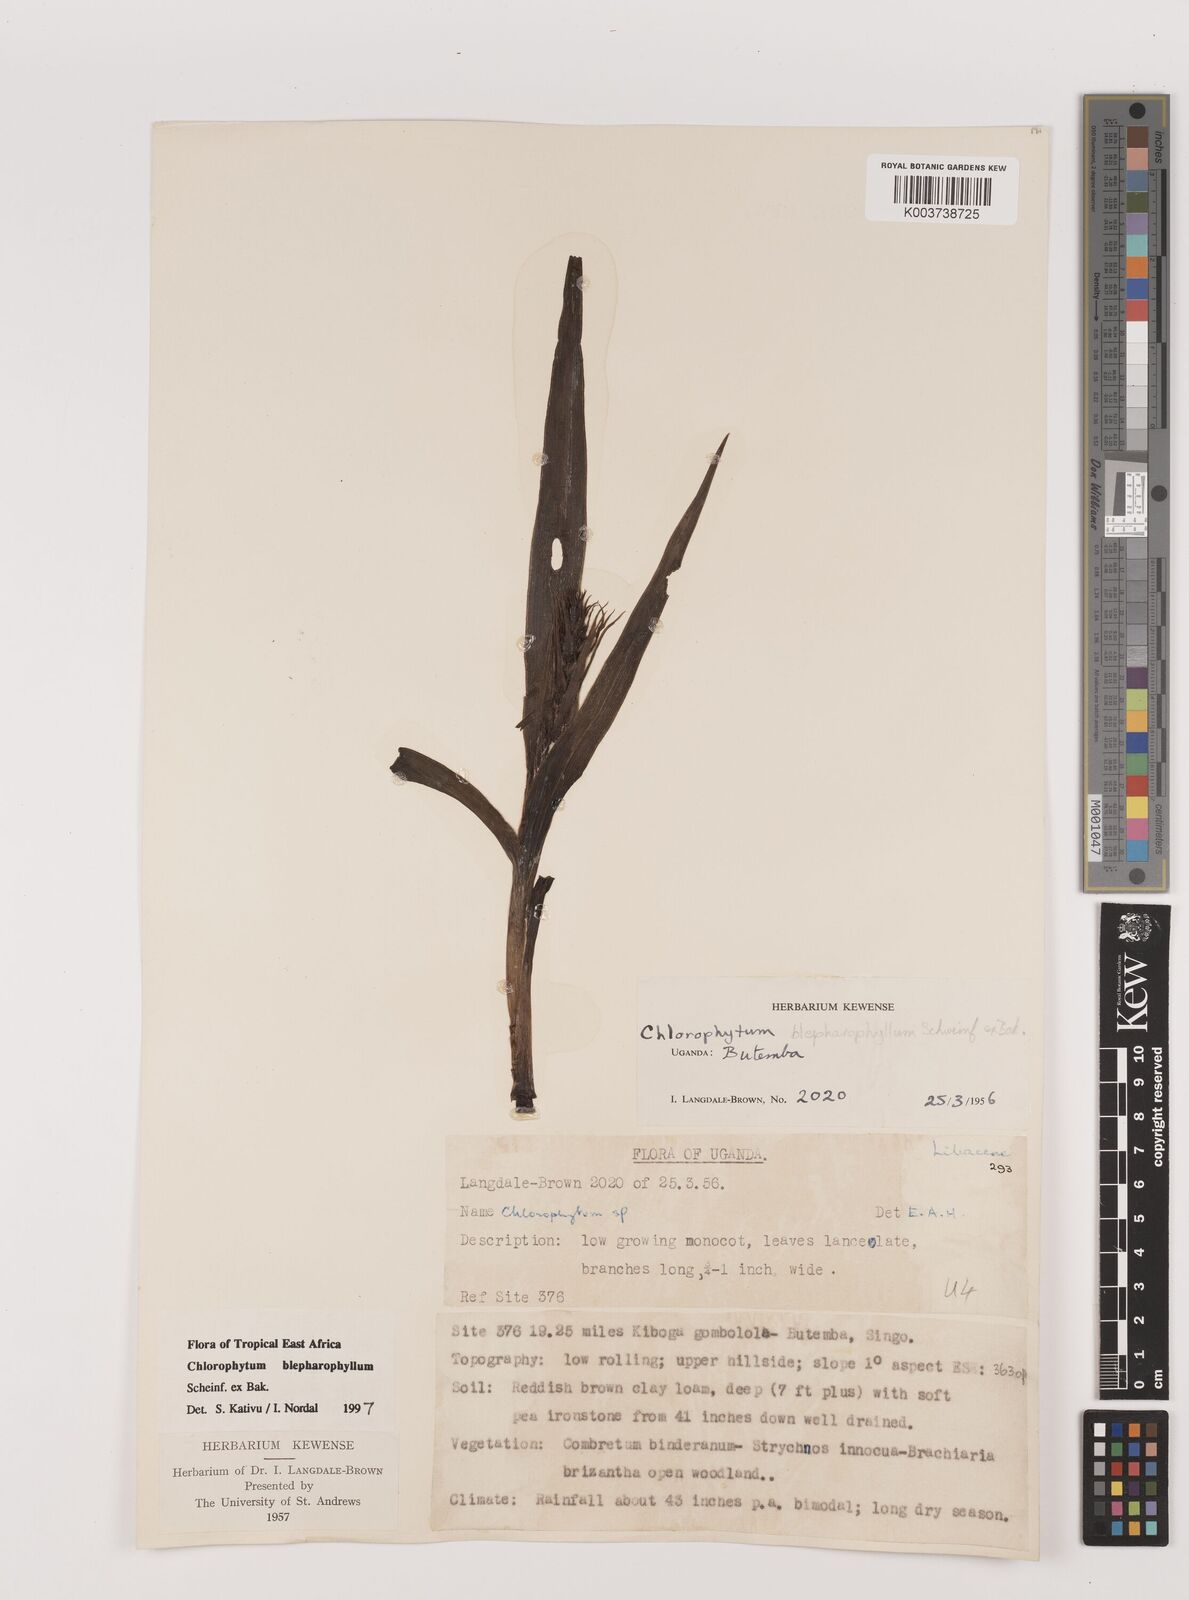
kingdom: Plantae
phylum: Tracheophyta
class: Liliopsida
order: Asparagales
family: Asparagaceae
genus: Chlorophytum
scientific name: Chlorophytum blepharophyllum
